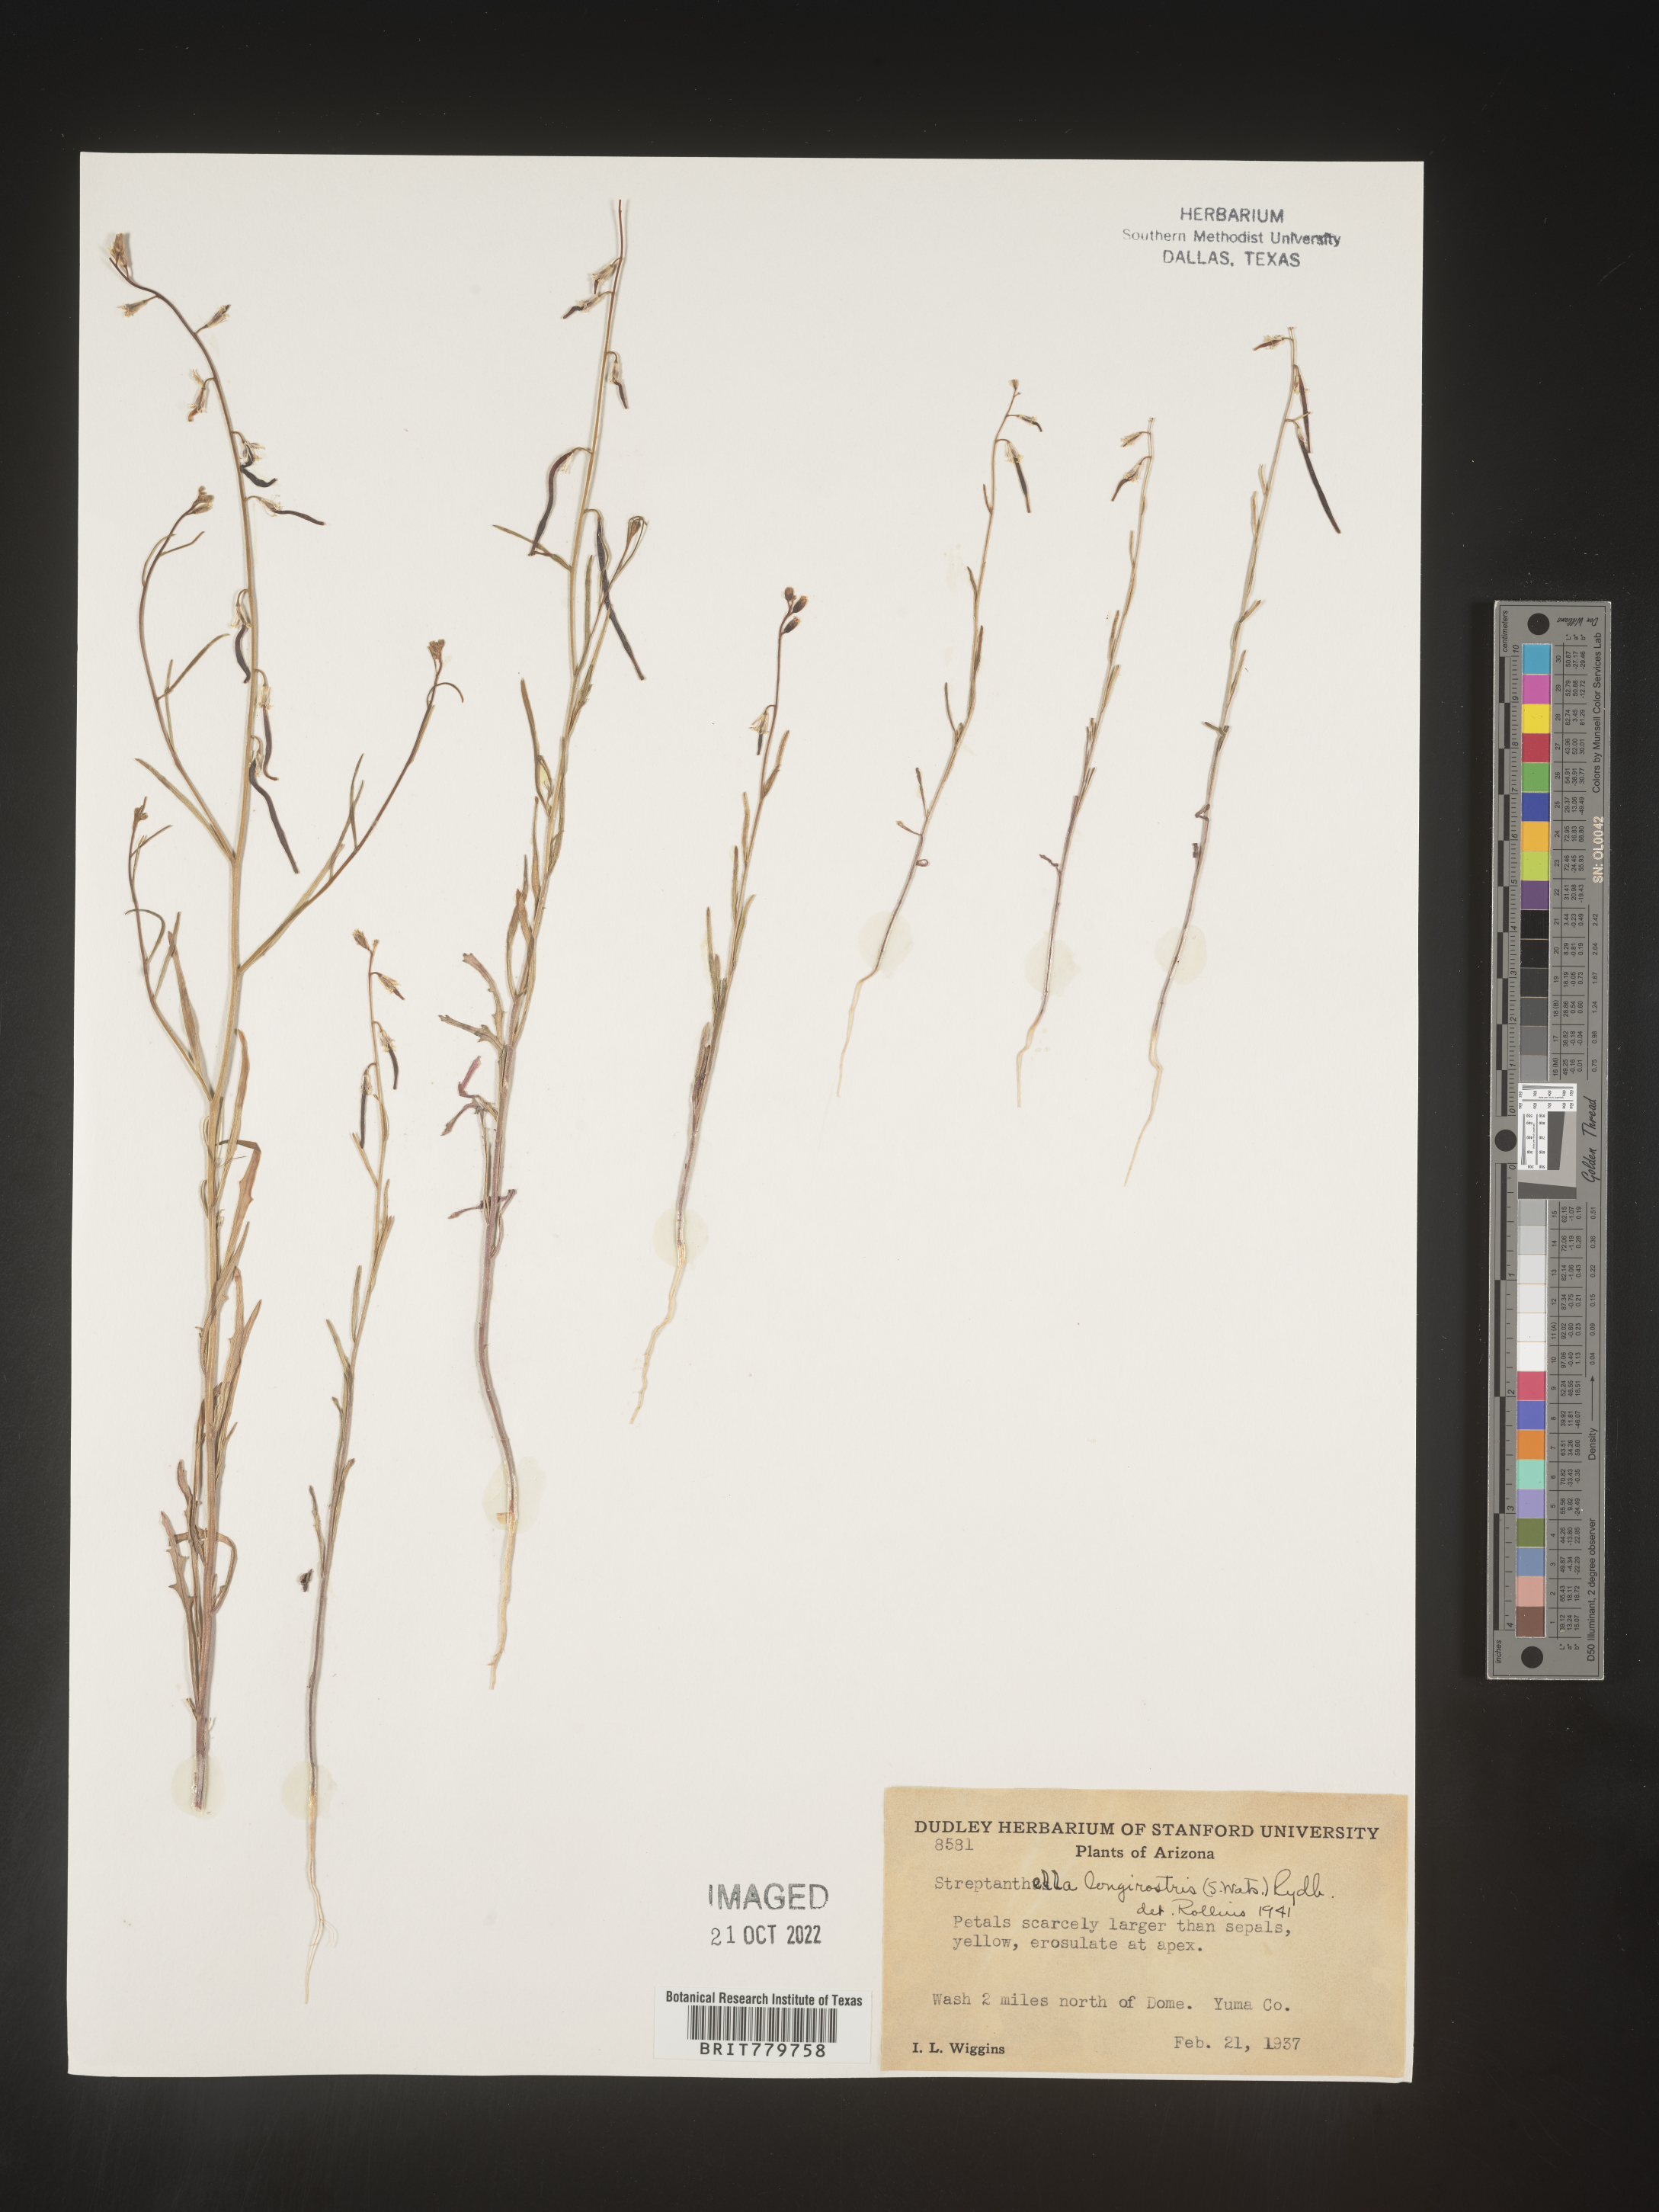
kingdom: Plantae
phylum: Tracheophyta
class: Magnoliopsida
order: Brassicales
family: Brassicaceae
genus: Streptanthus
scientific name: Streptanthus
